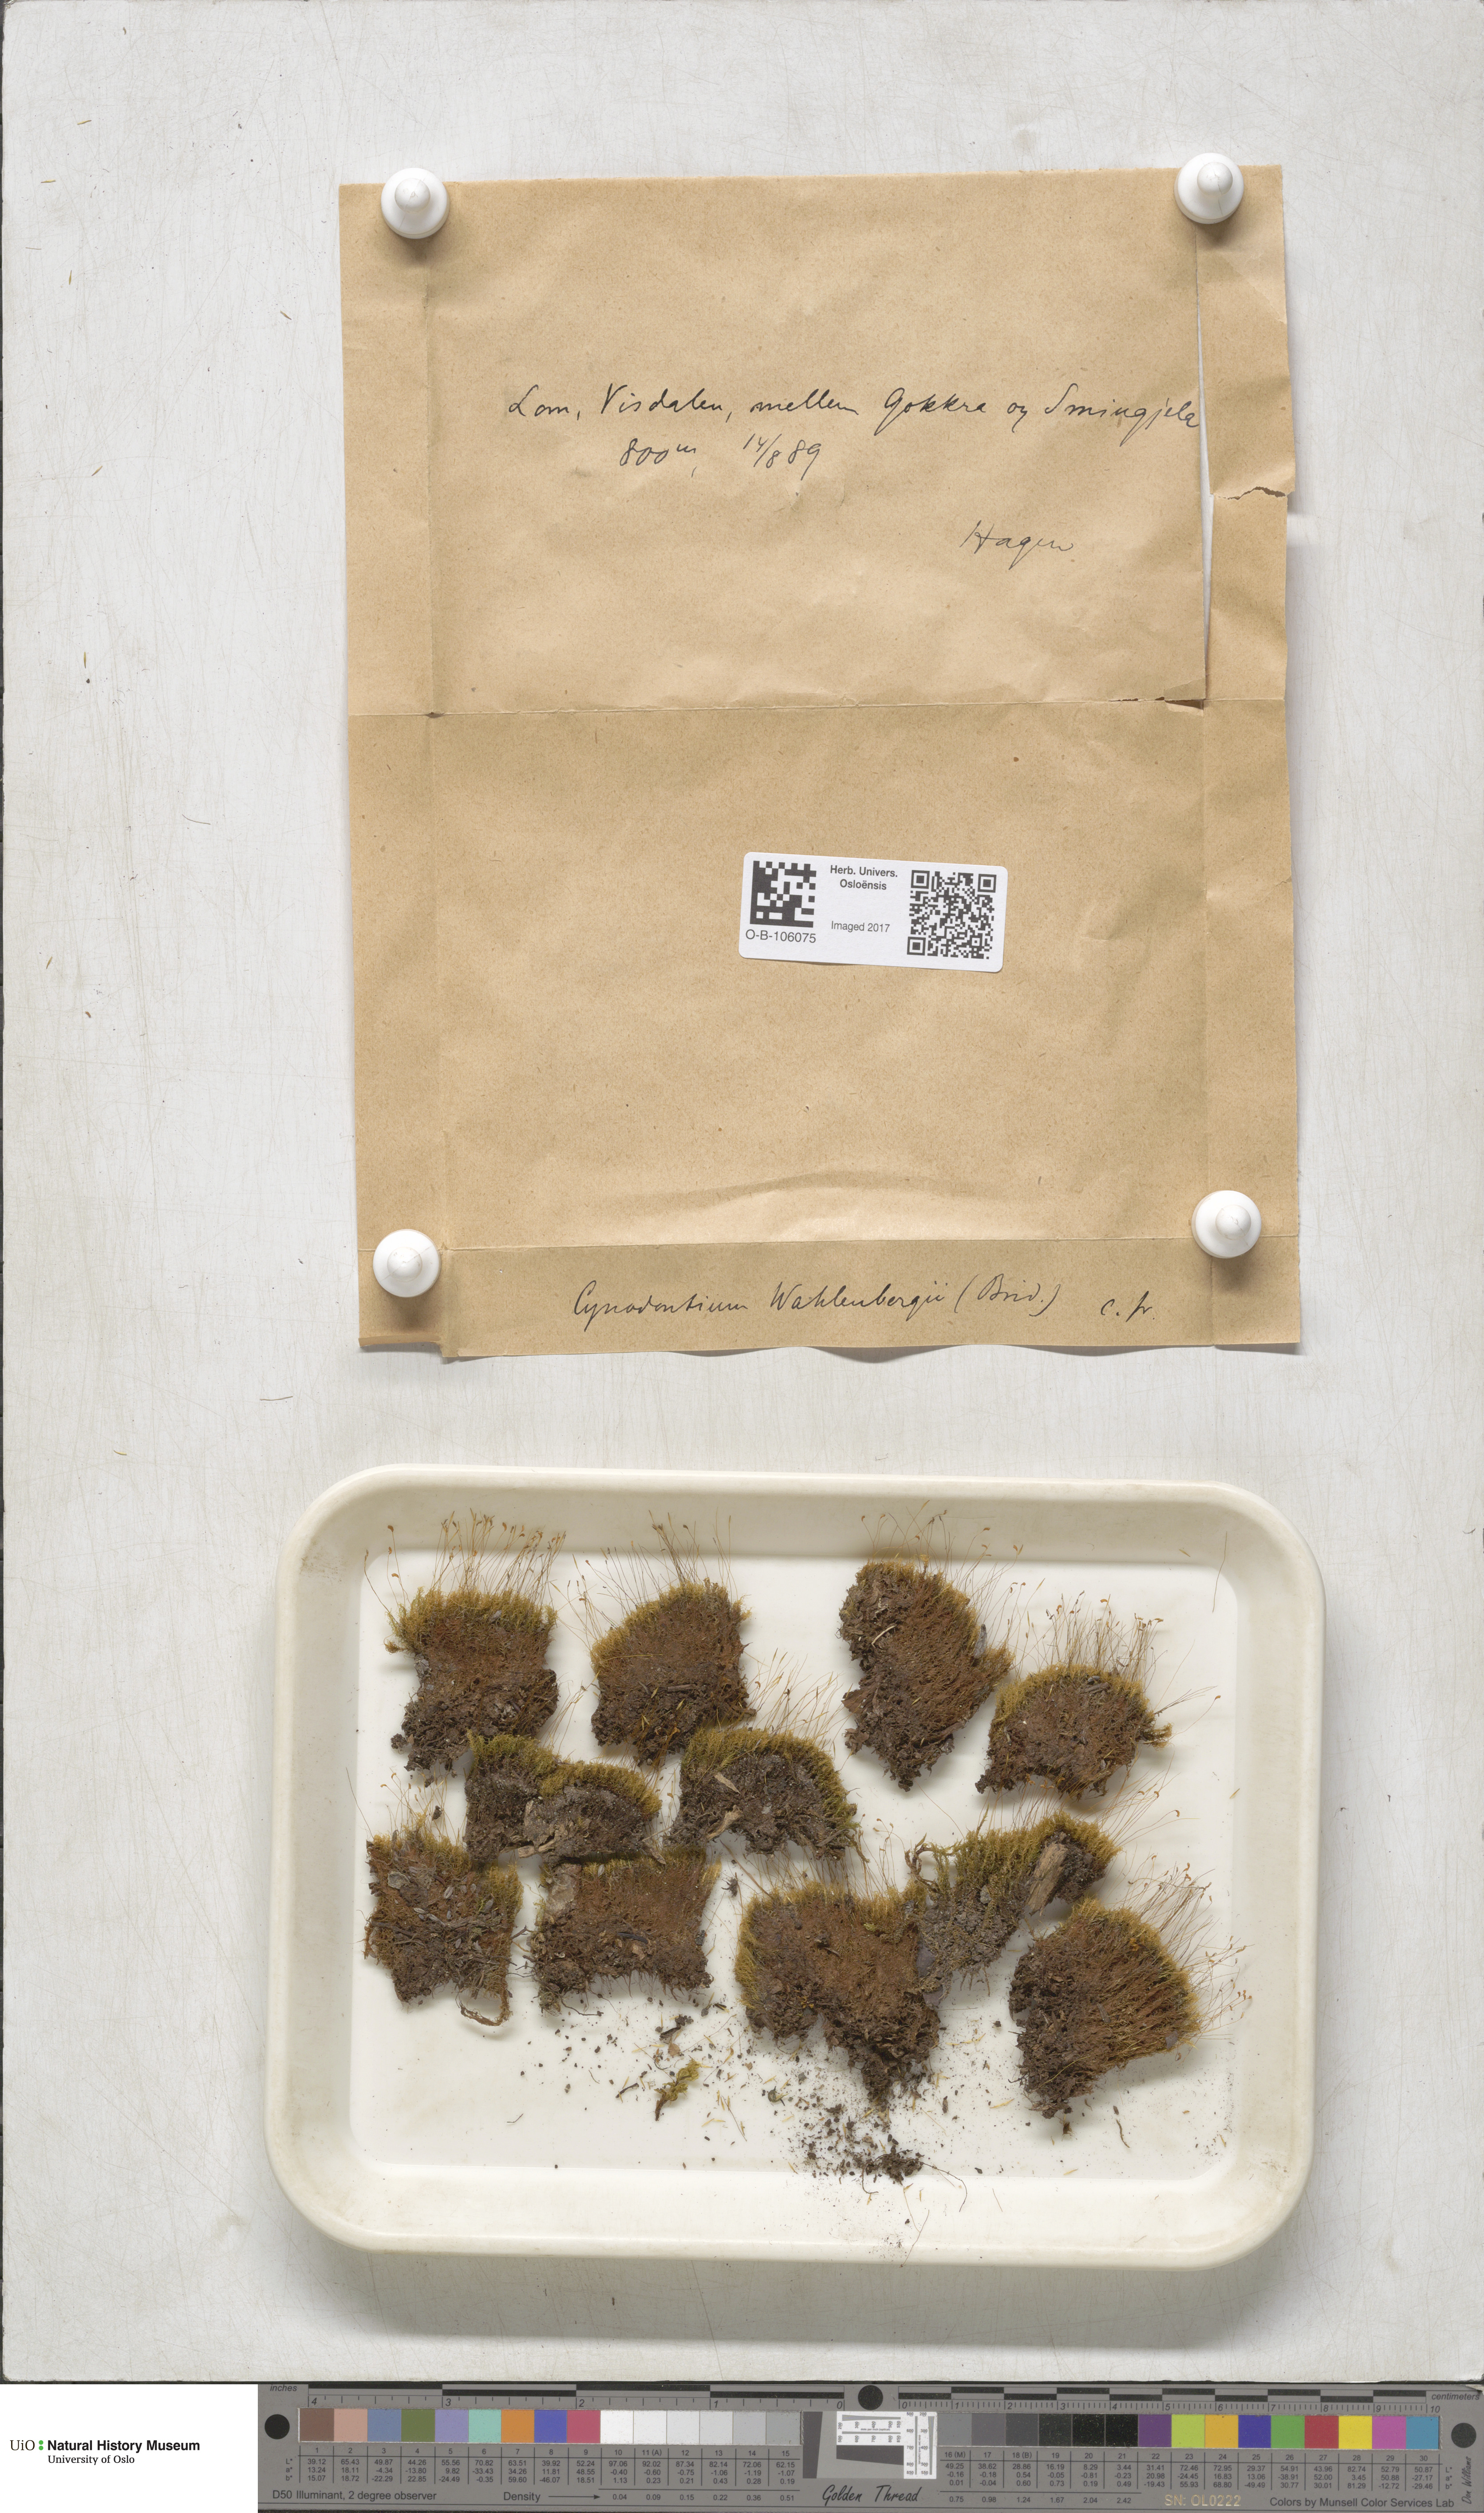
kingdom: Plantae
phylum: Bryophyta
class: Bryopsida
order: Dicranales
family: Rhabdoweisiaceae
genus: Brideliella
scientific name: Brideliella wahlenbergii
